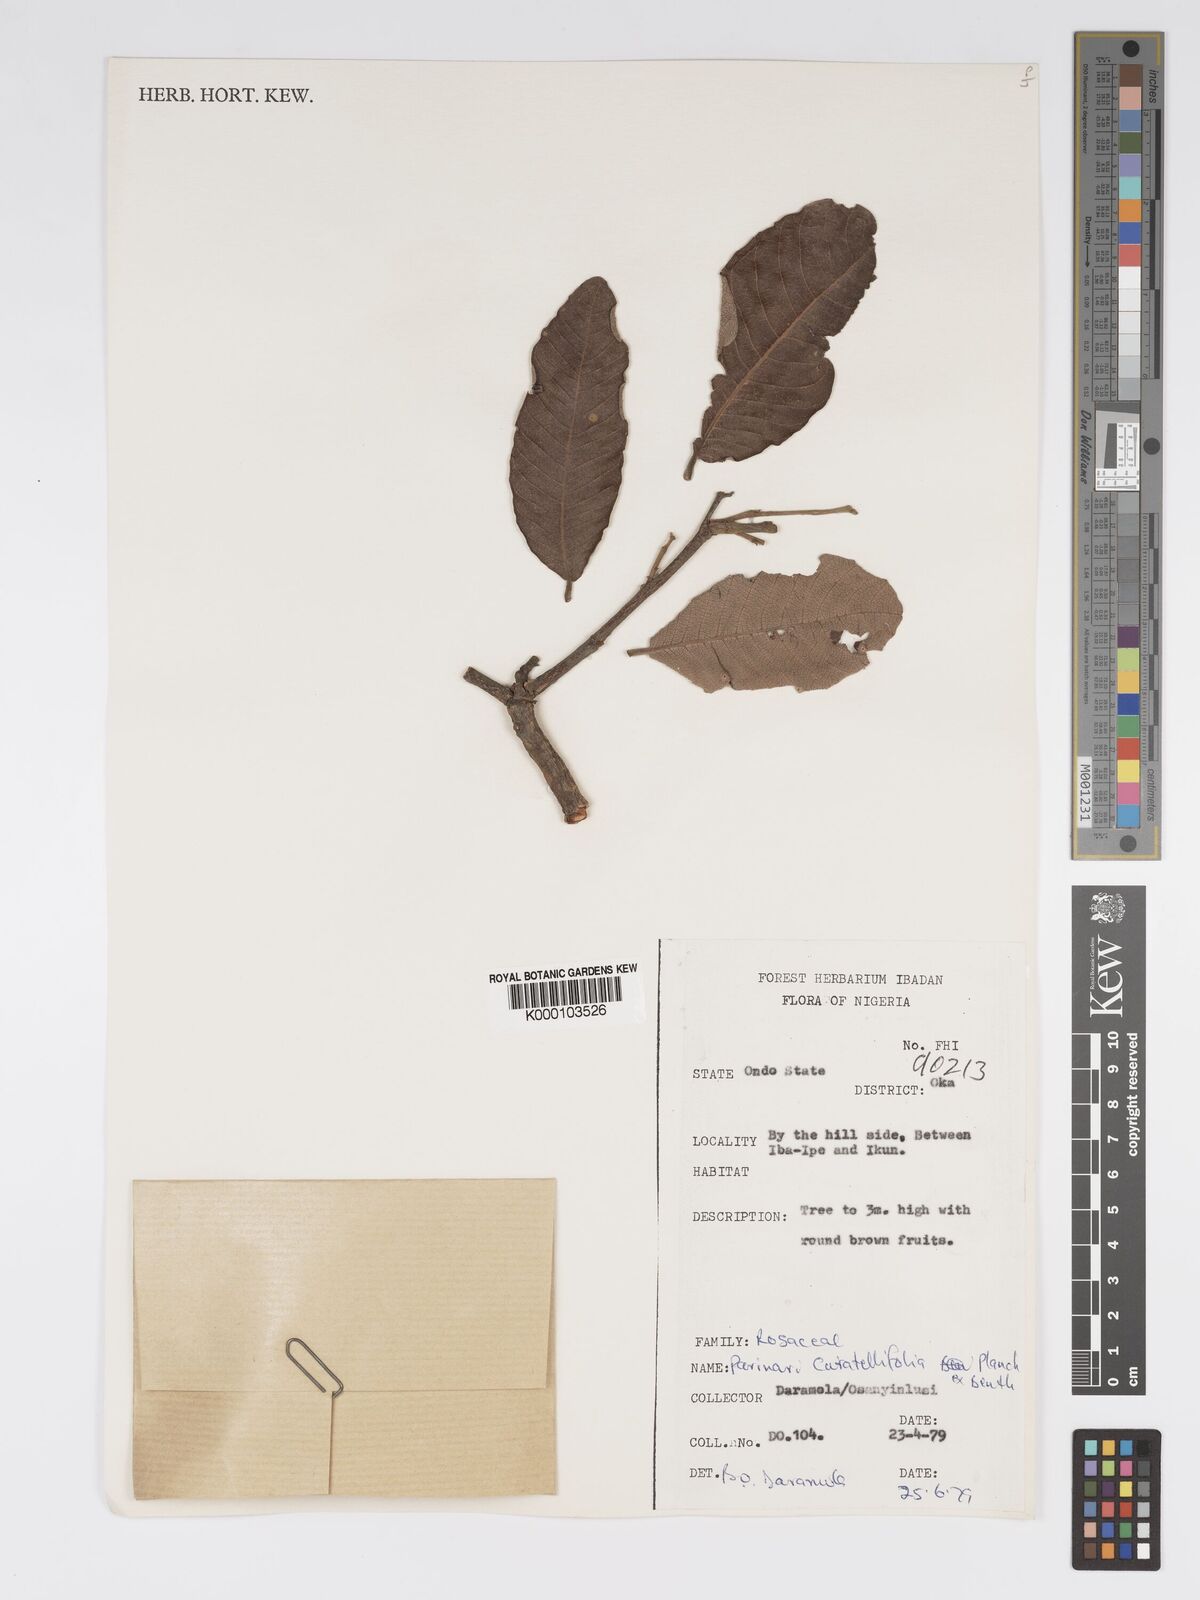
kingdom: Plantae
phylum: Tracheophyta
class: Magnoliopsida
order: Malpighiales
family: Chrysobalanaceae
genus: Parinari
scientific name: Parinari curatellifolia
